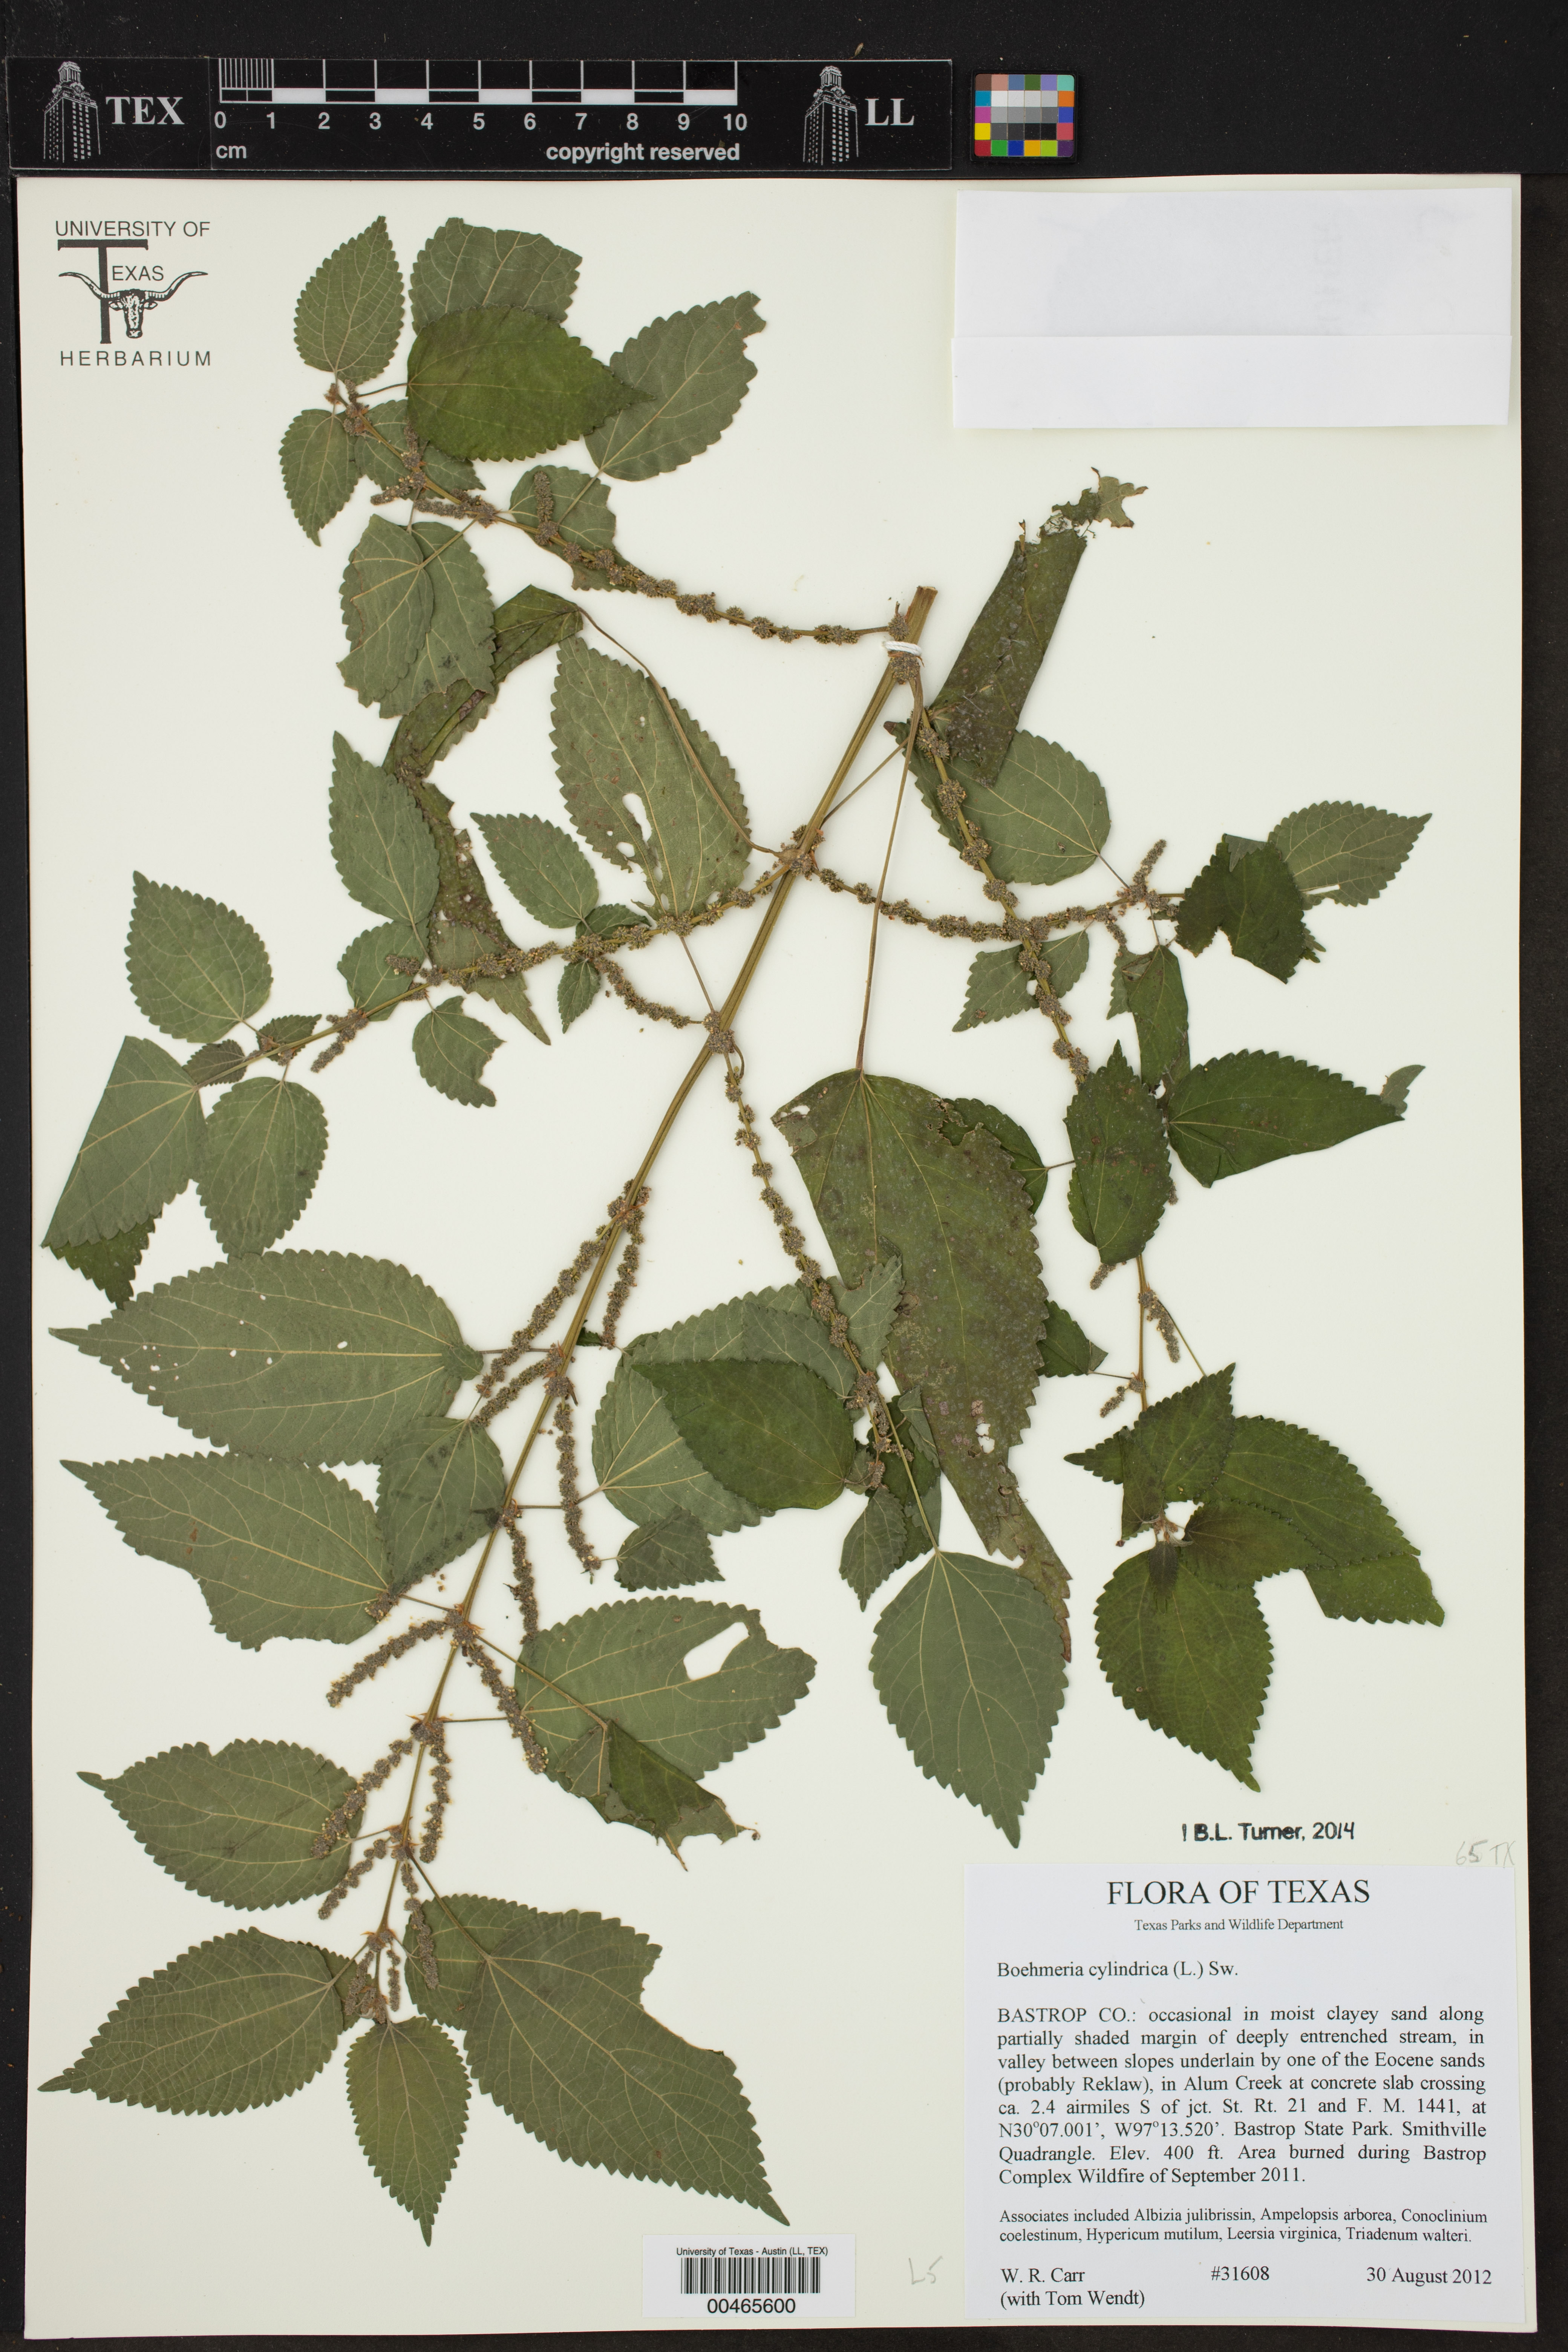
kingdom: Plantae
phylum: Tracheophyta
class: Magnoliopsida
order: Rosales
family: Urticaceae
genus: Boehmeria
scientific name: Boehmeria cylindrica
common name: Bog-hemp
